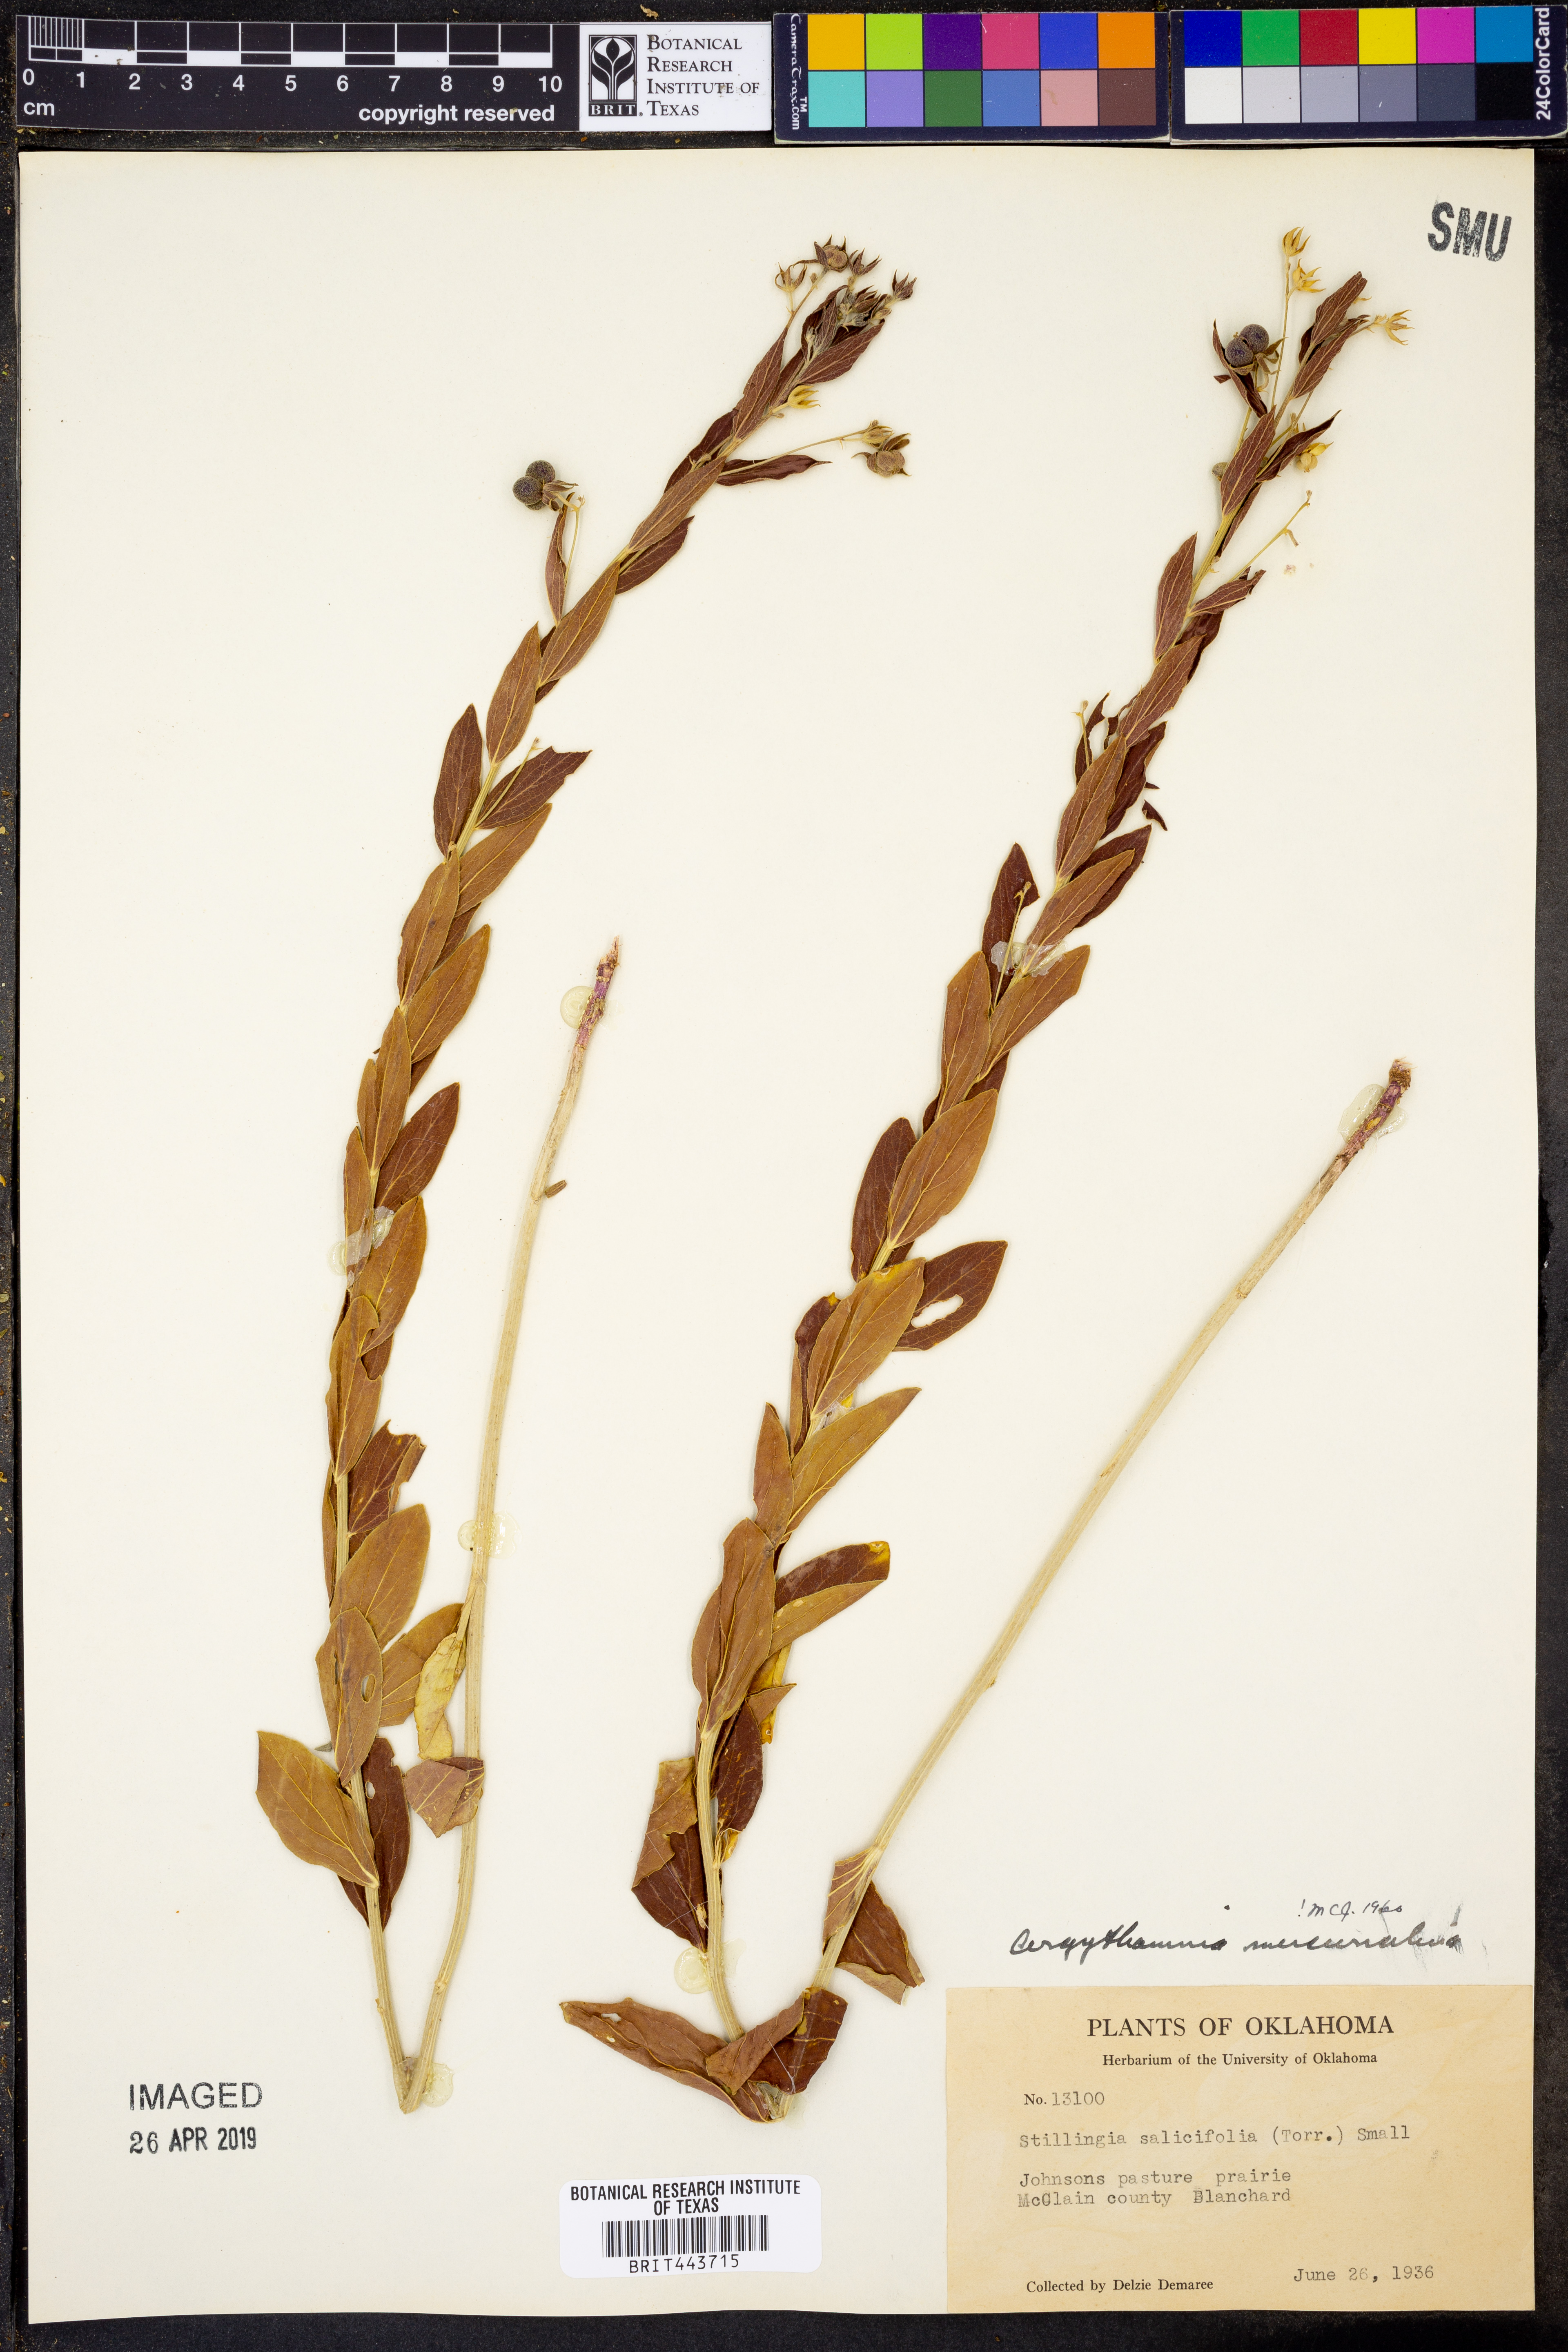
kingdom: Plantae
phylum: Tracheophyta
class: Magnoliopsida
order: Malpighiales
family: Euphorbiaceae
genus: Ditaxis
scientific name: Ditaxis mercurialina
